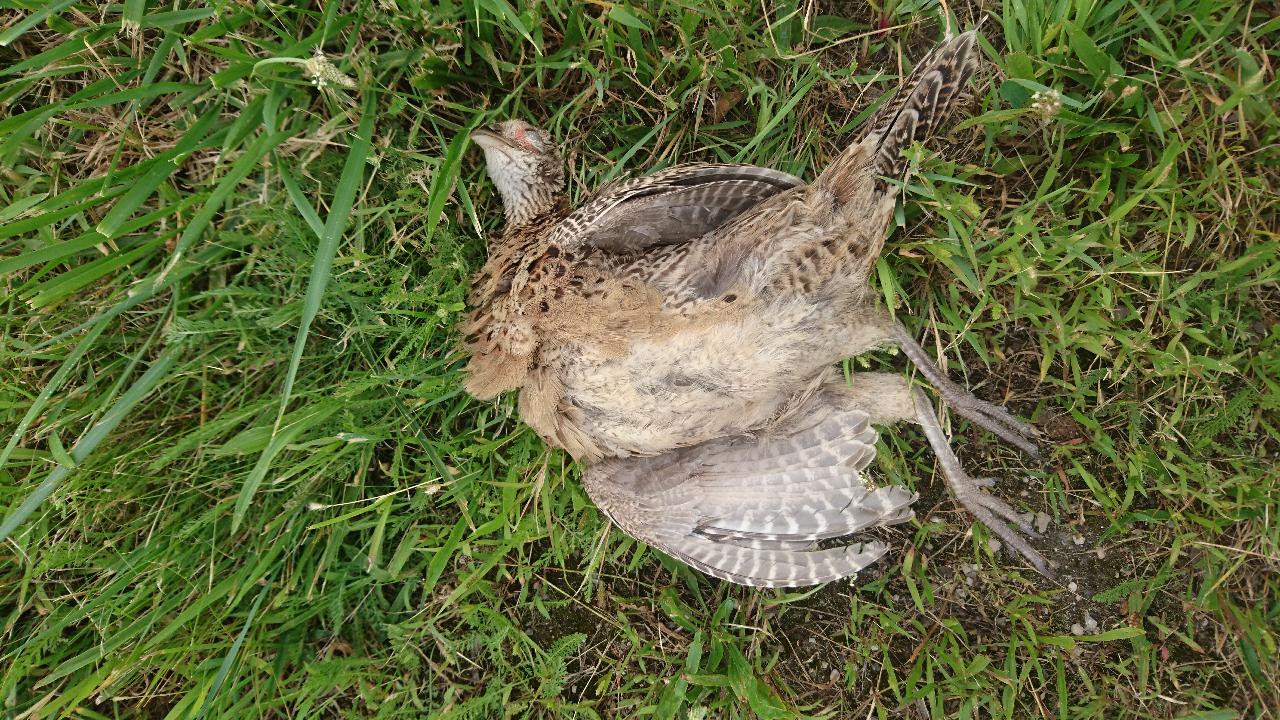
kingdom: Animalia
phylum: Chordata
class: Aves
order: Galliformes
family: Phasianidae
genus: Phasianus
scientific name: Phasianus colchicus
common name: Common pheasant
